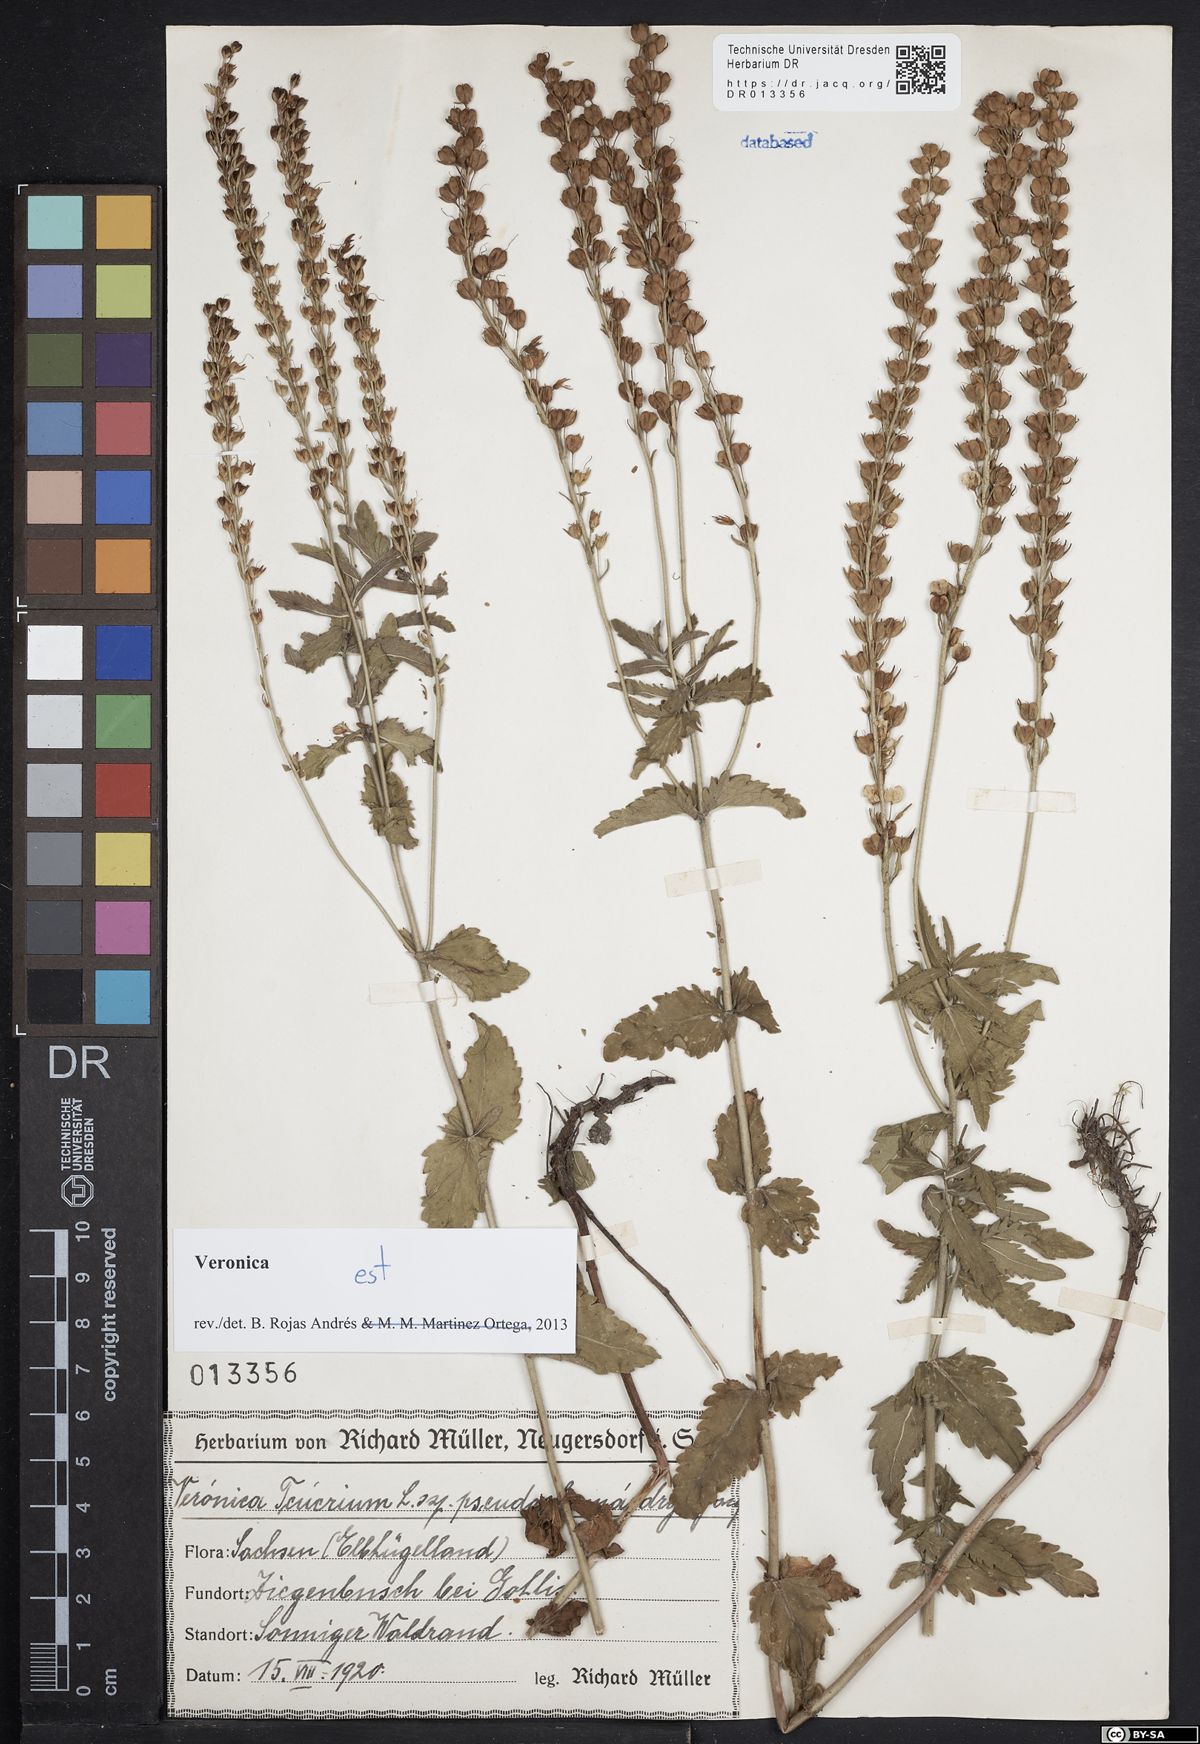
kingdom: Plantae
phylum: Tracheophyta
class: Magnoliopsida
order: Lamiales
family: Plantaginaceae
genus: Veronica
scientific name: Veronica teucrium
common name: Large speedwell
